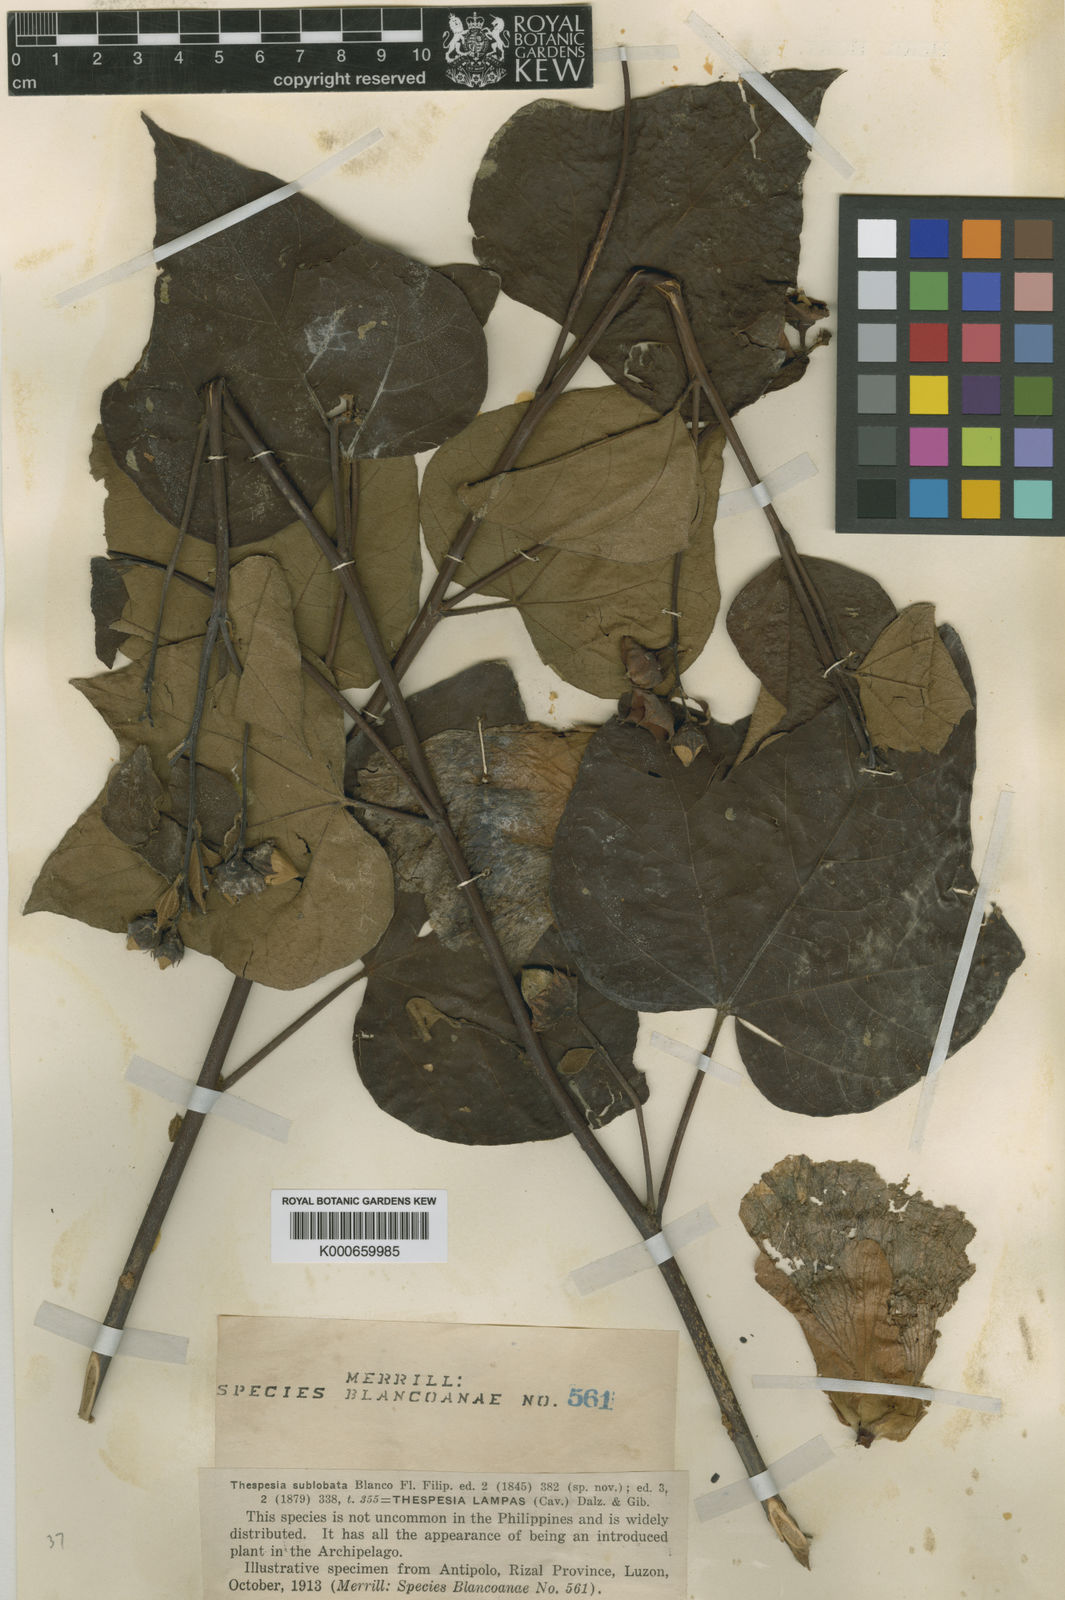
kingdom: Plantae
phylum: Tracheophyta
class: Magnoliopsida
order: Malvales
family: Malvaceae
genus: Thespesia
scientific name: Thespesia lampas
